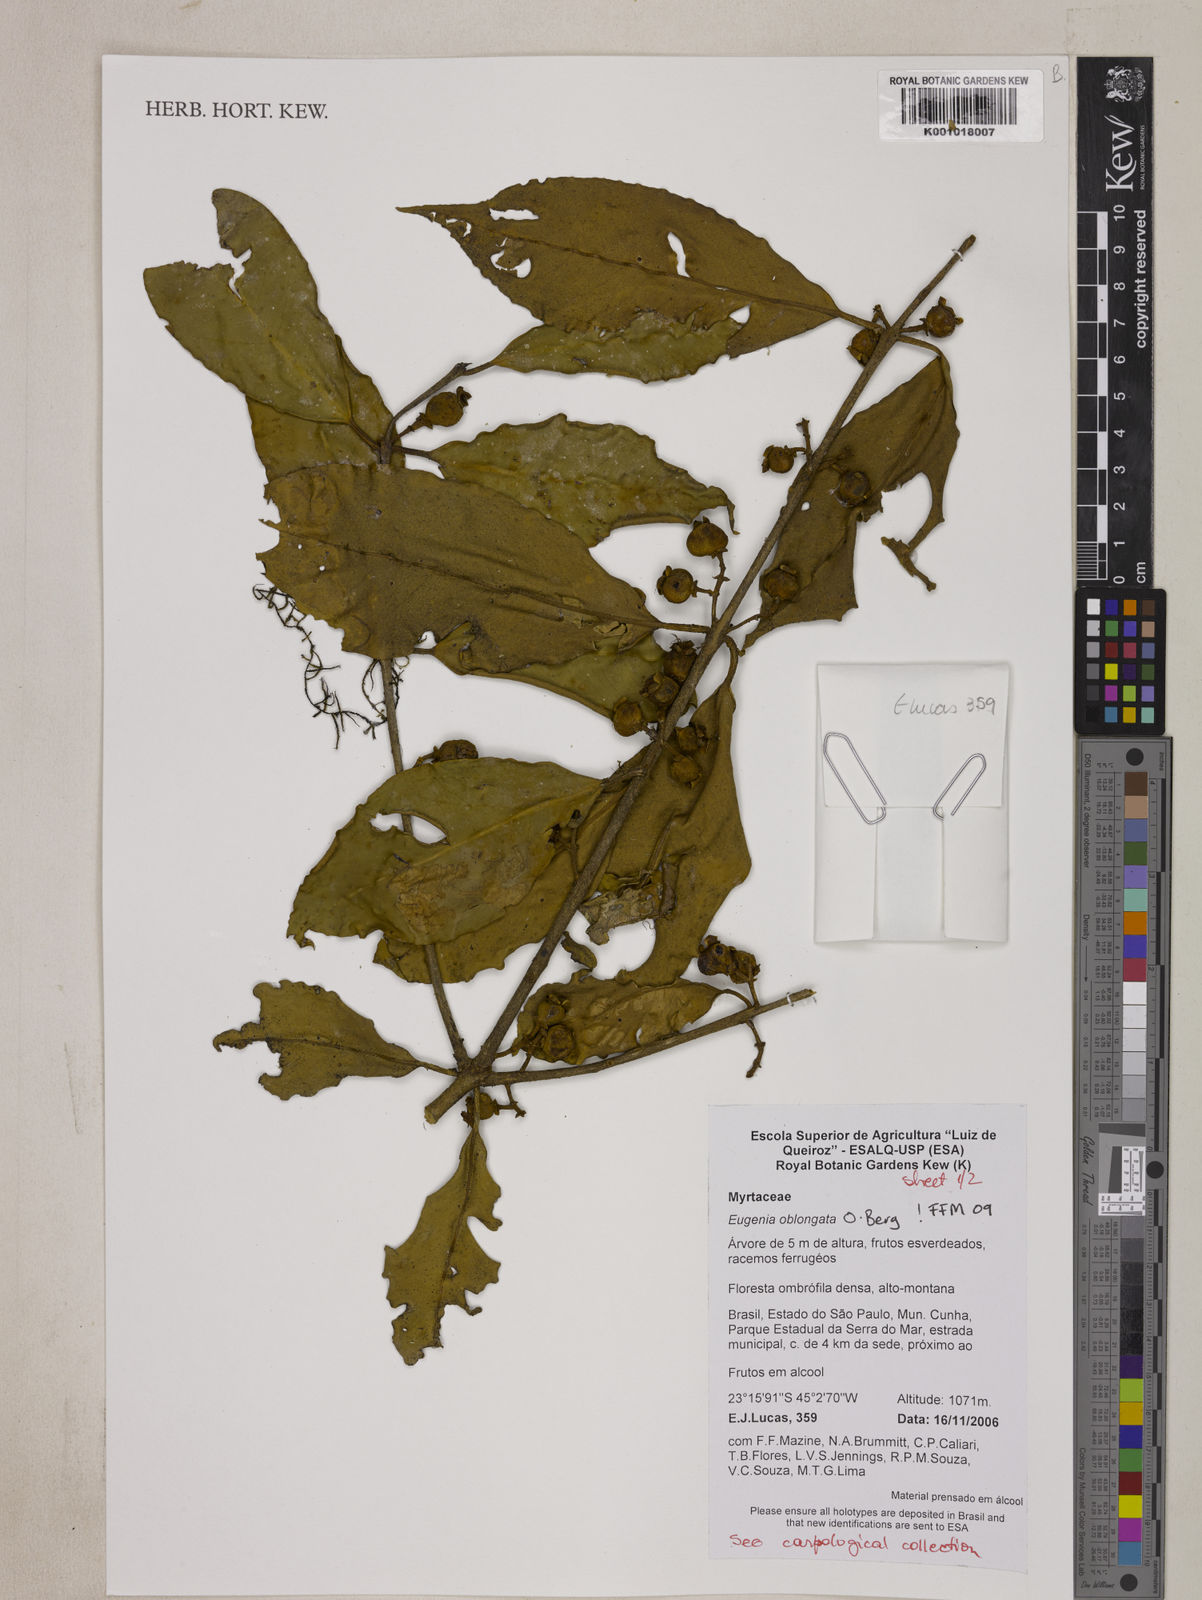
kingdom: Plantae
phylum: Tracheophyta
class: Magnoliopsida
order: Myrtales
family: Myrtaceae
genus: Eugenia
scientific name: Eugenia oblongata
